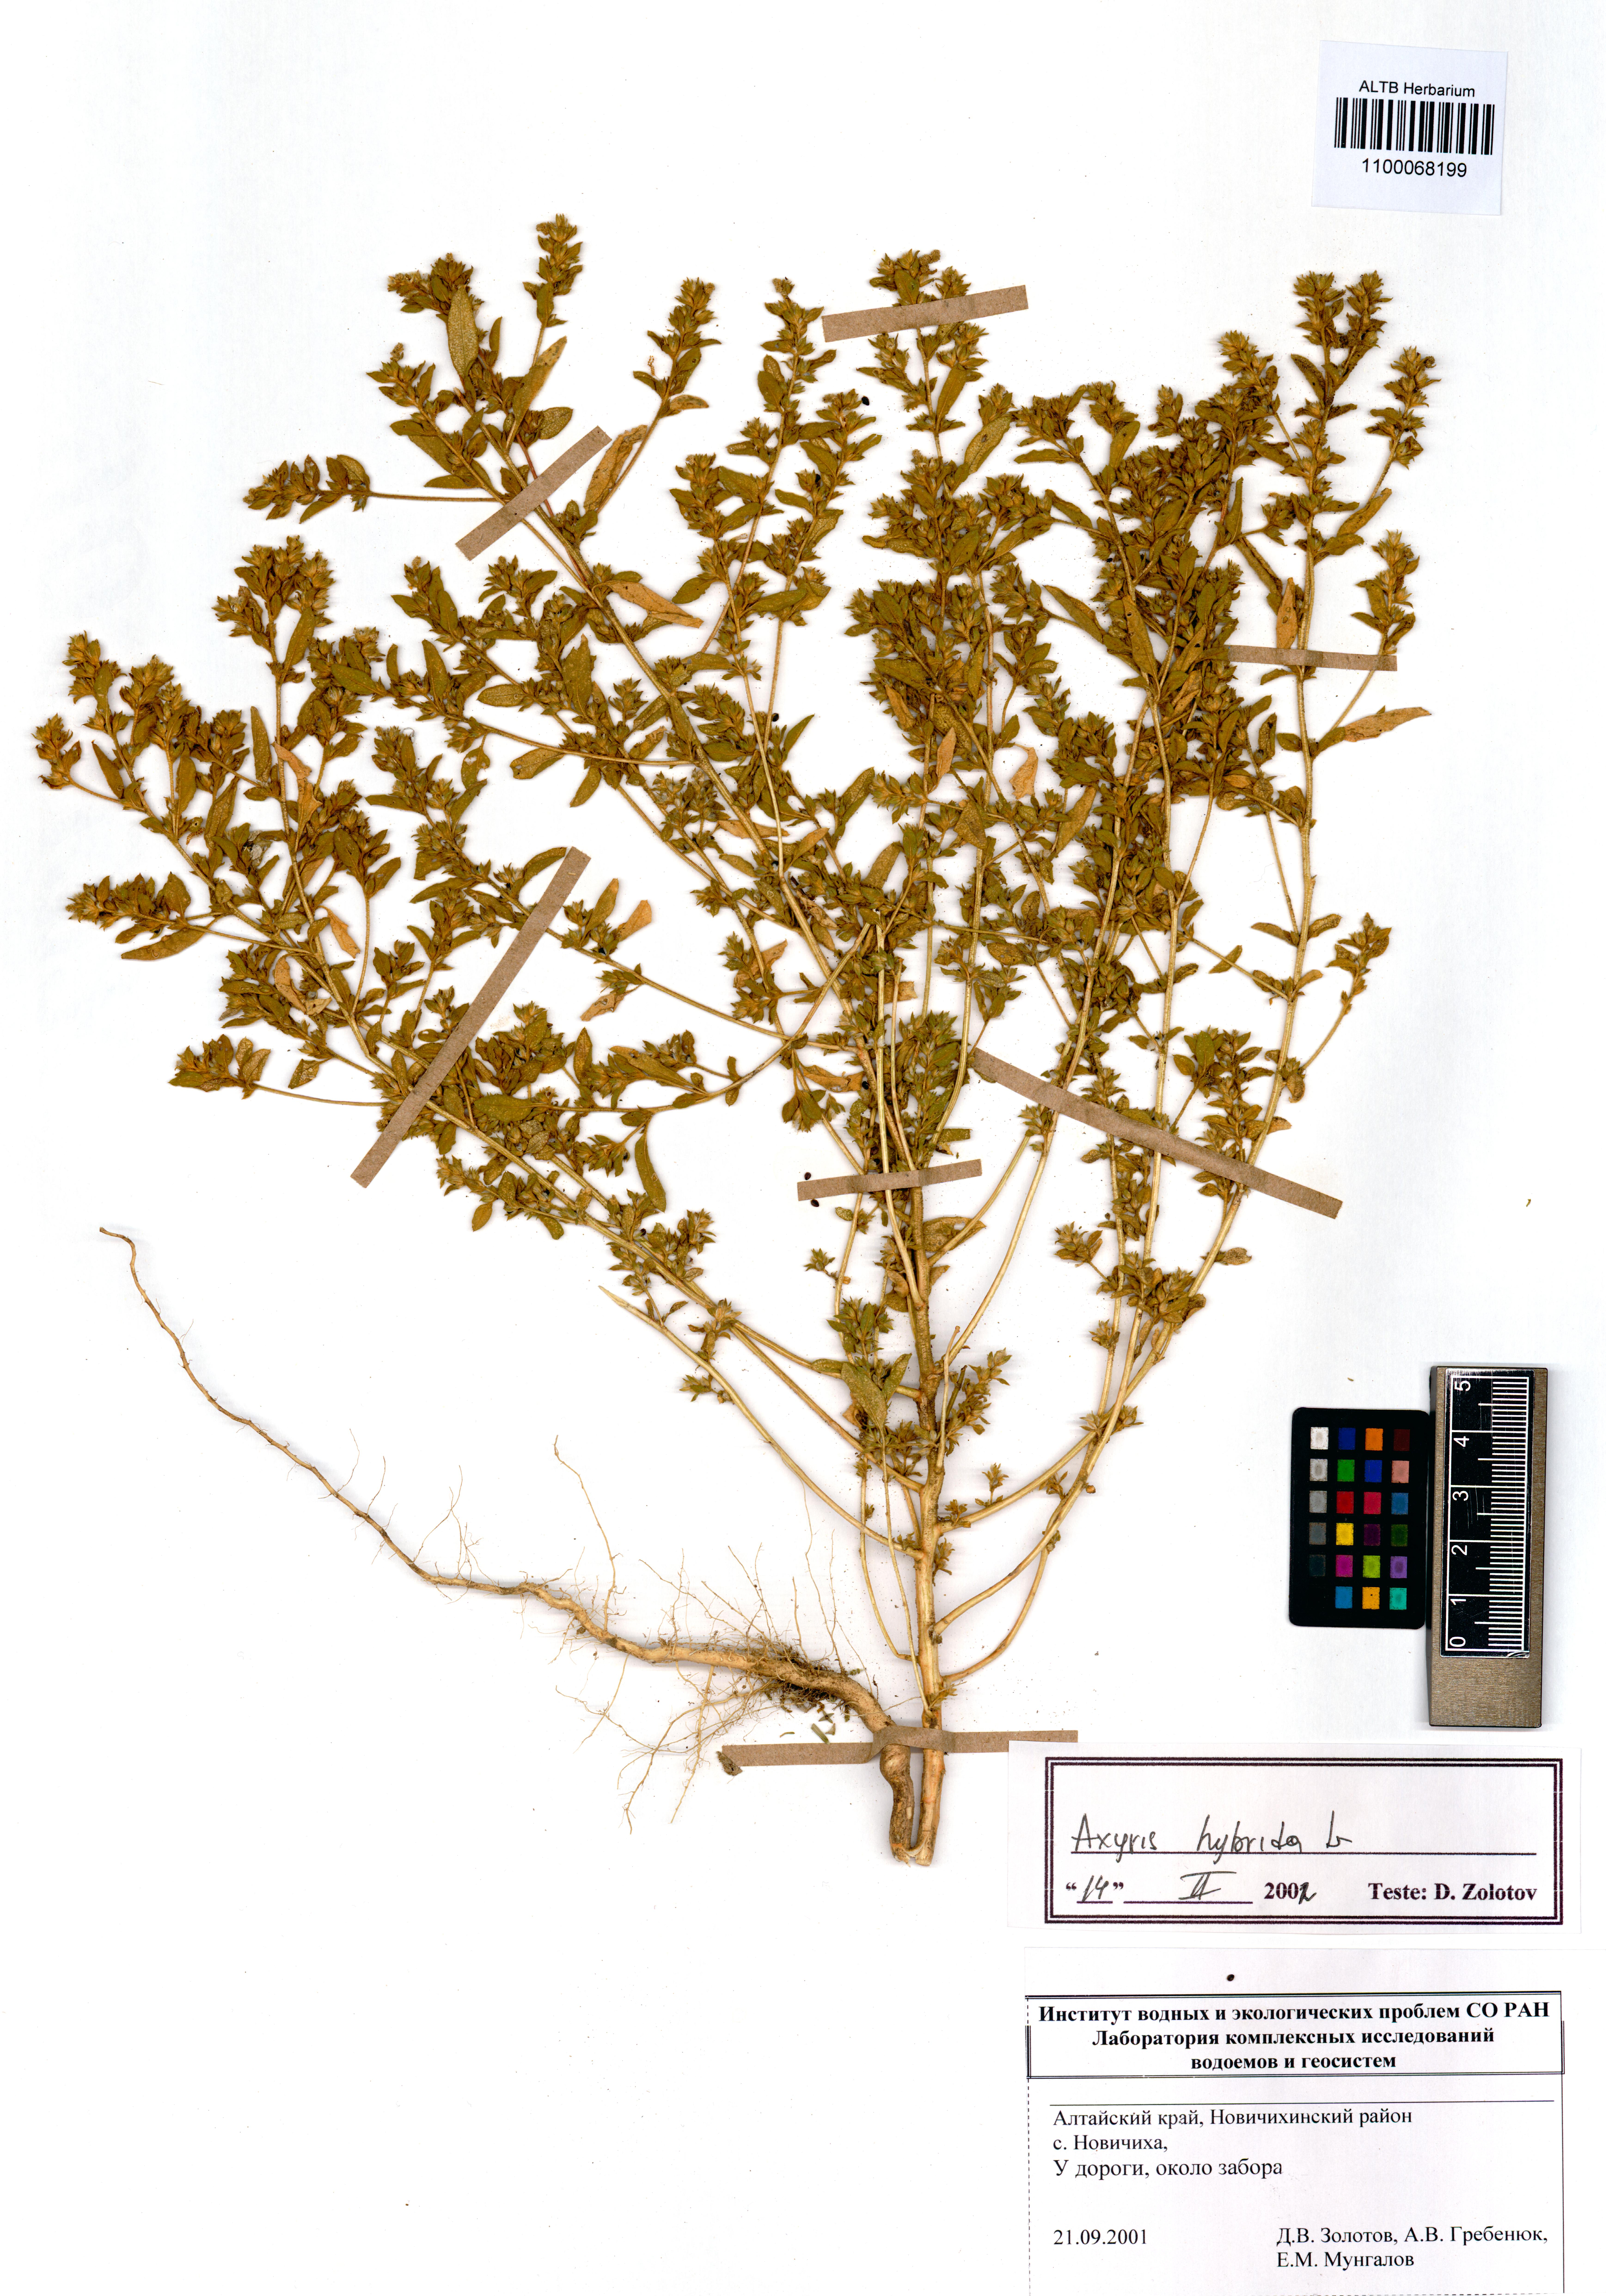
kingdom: Plantae
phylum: Tracheophyta
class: Magnoliopsida
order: Caryophyllales
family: Amaranthaceae
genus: Axyris
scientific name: Axyris hybrida
